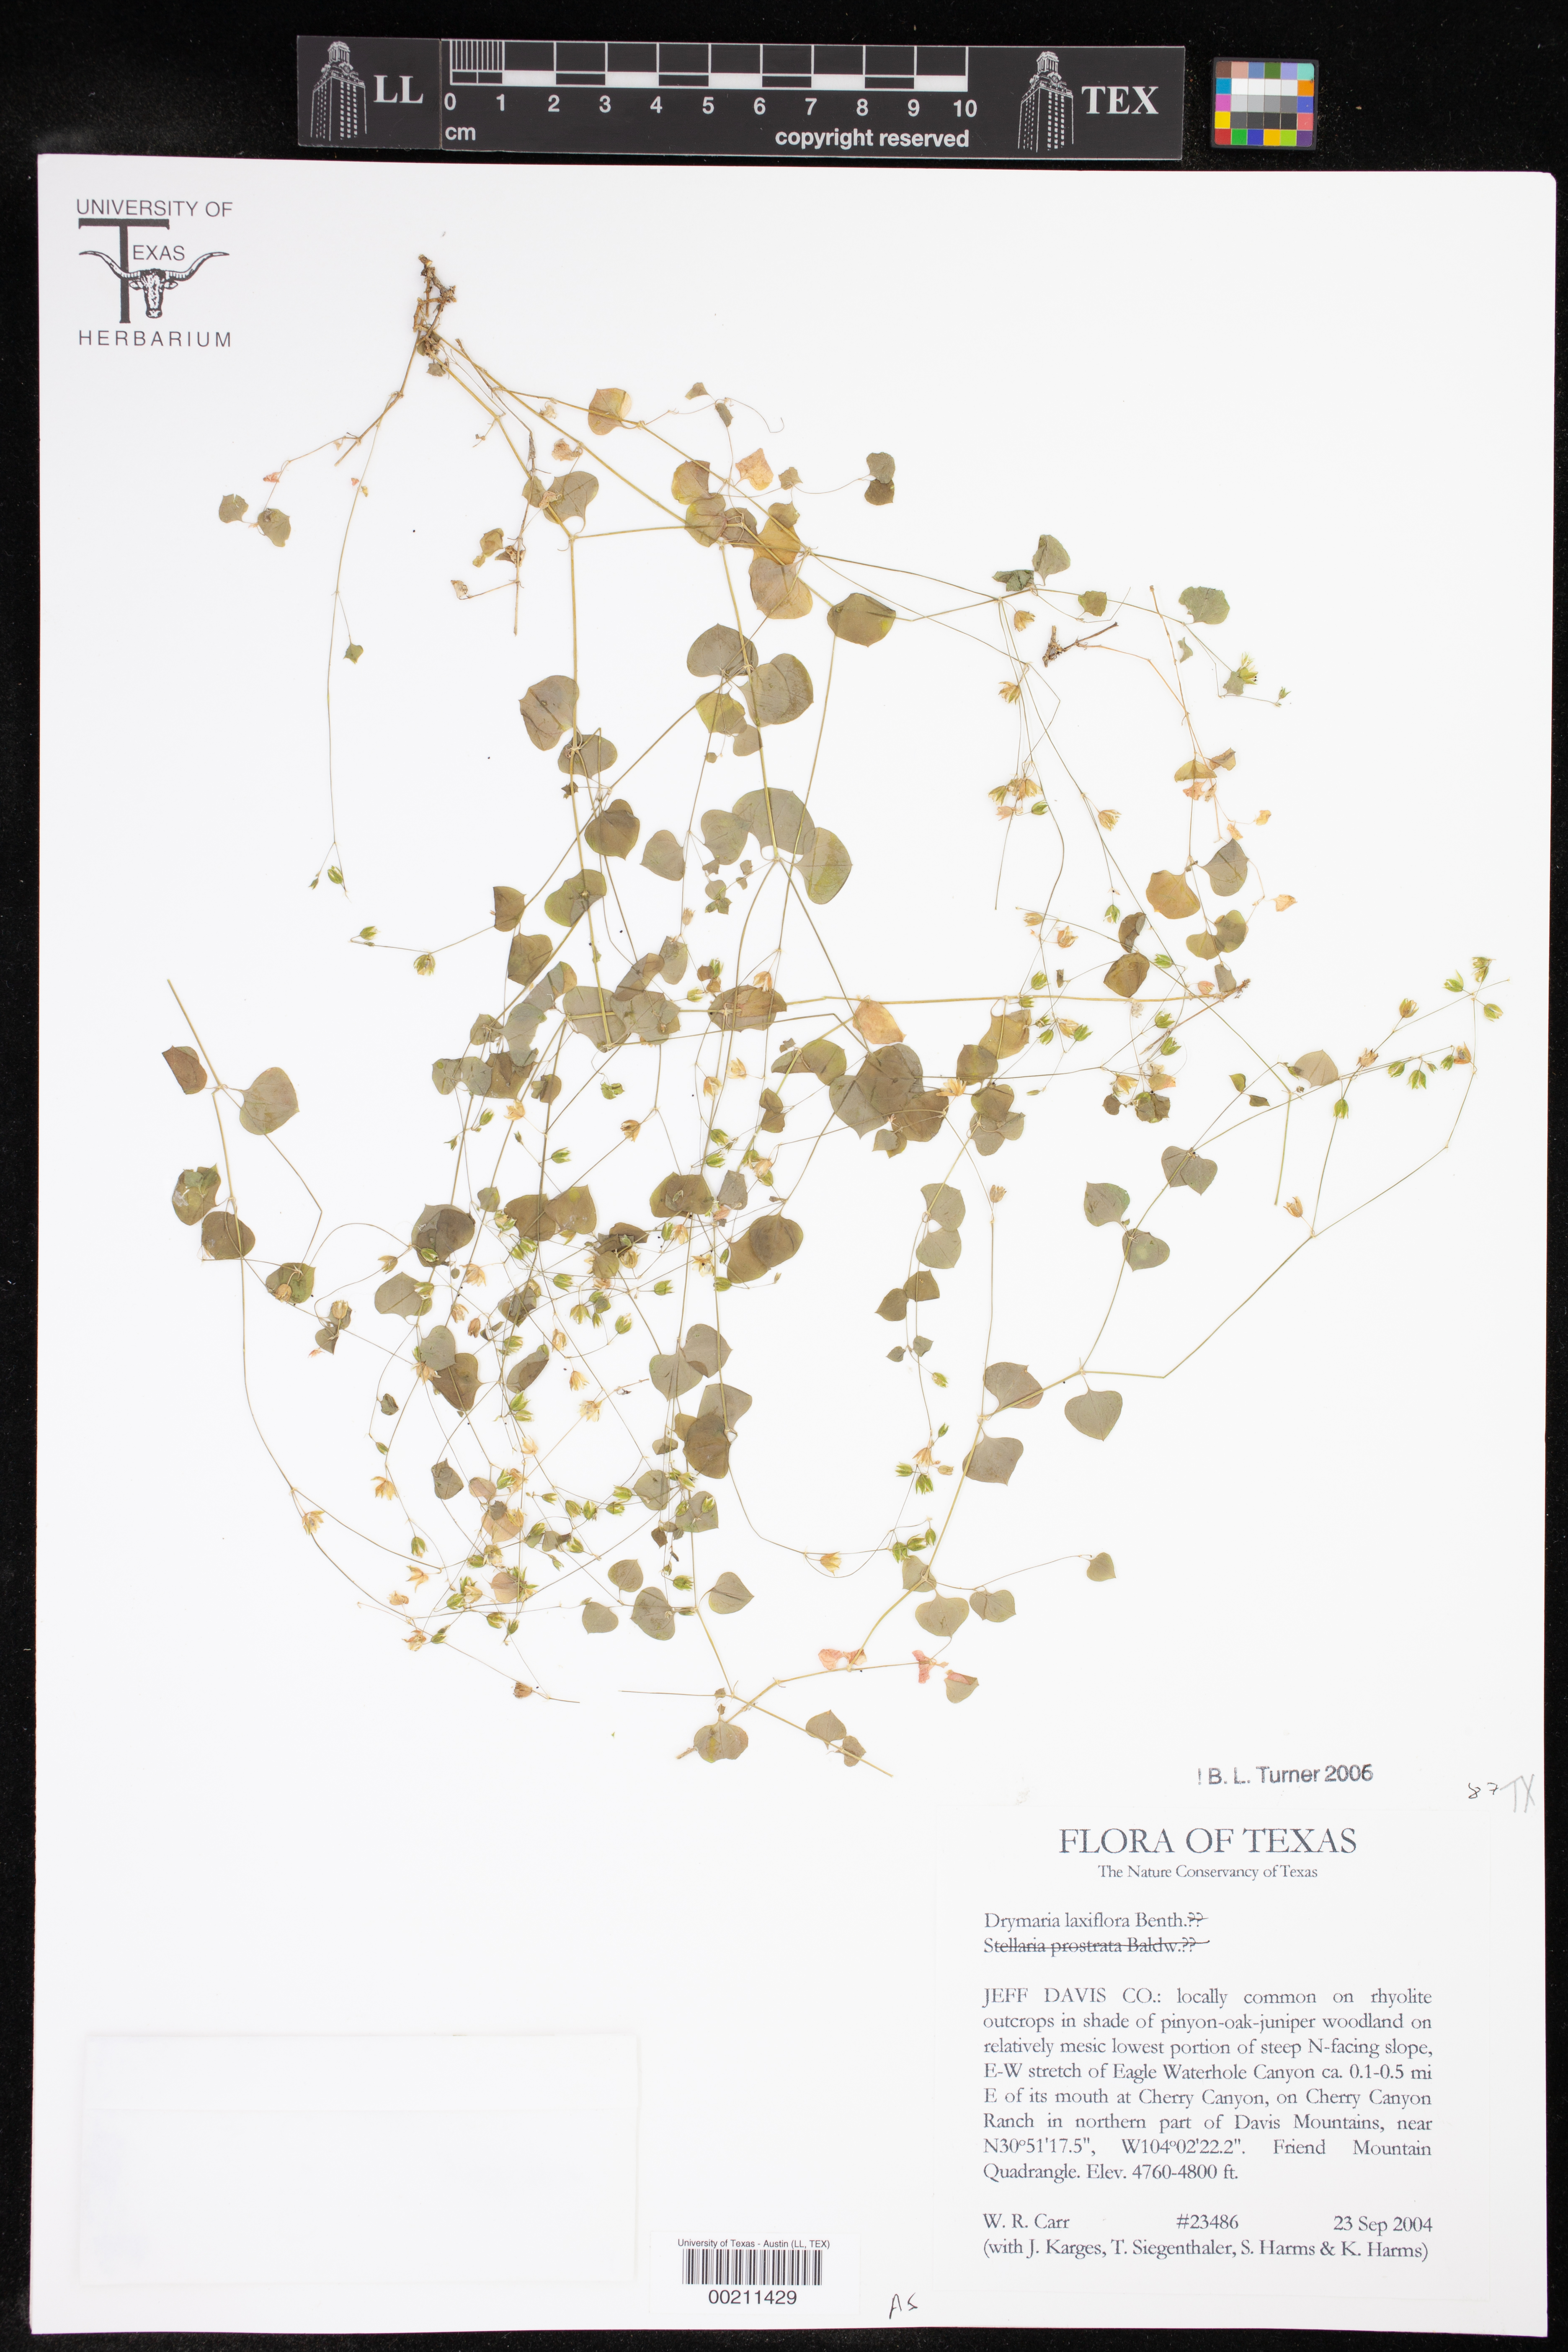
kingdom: Plantae
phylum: Tracheophyta
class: Magnoliopsida
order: Caryophyllales
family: Caryophyllaceae
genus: Drymaria
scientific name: Drymaria laxiflora
